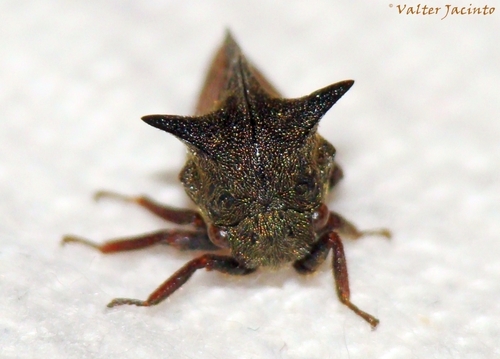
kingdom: Animalia
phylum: Arthropoda
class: Insecta
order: Hemiptera
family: Membracidae
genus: Centrotus
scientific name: Centrotus cornuta
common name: Treehopper
